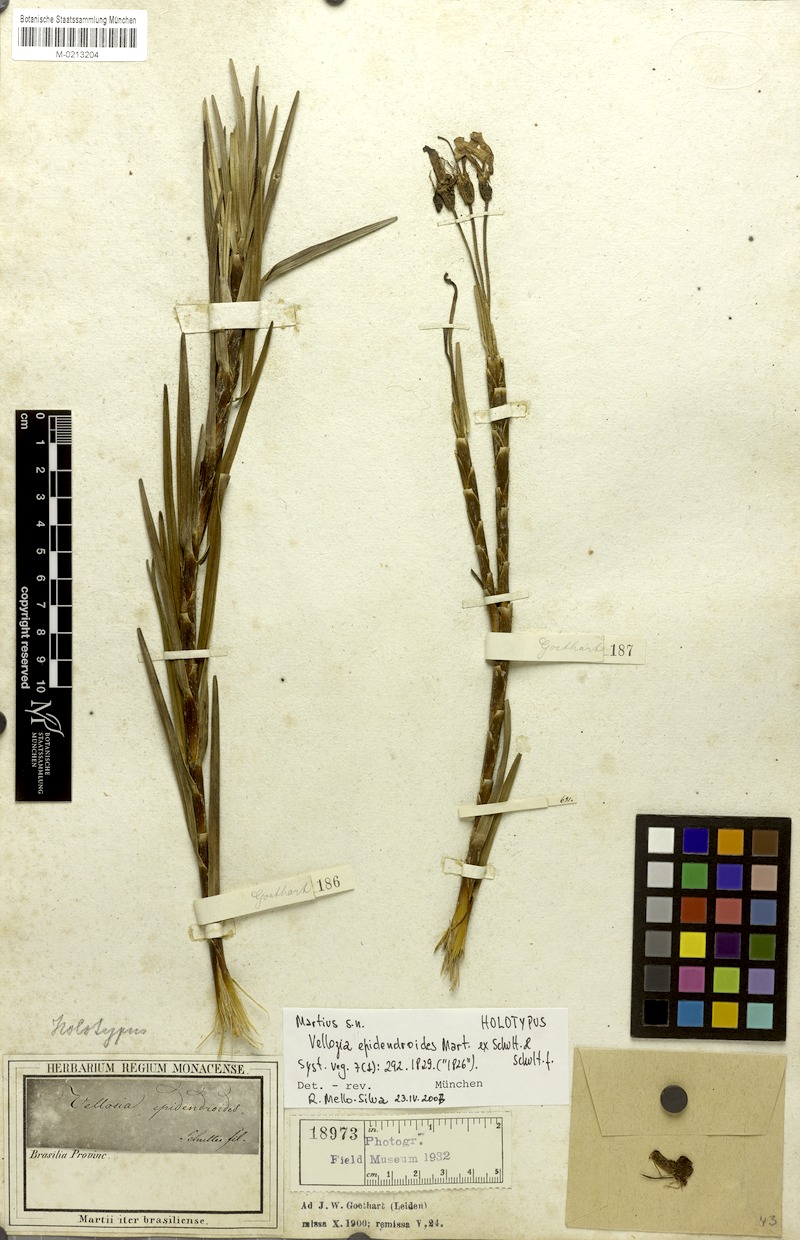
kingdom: Plantae
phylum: Tracheophyta
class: Liliopsida
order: Pandanales
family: Velloziaceae
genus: Vellozia
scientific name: Vellozia epidendroides
